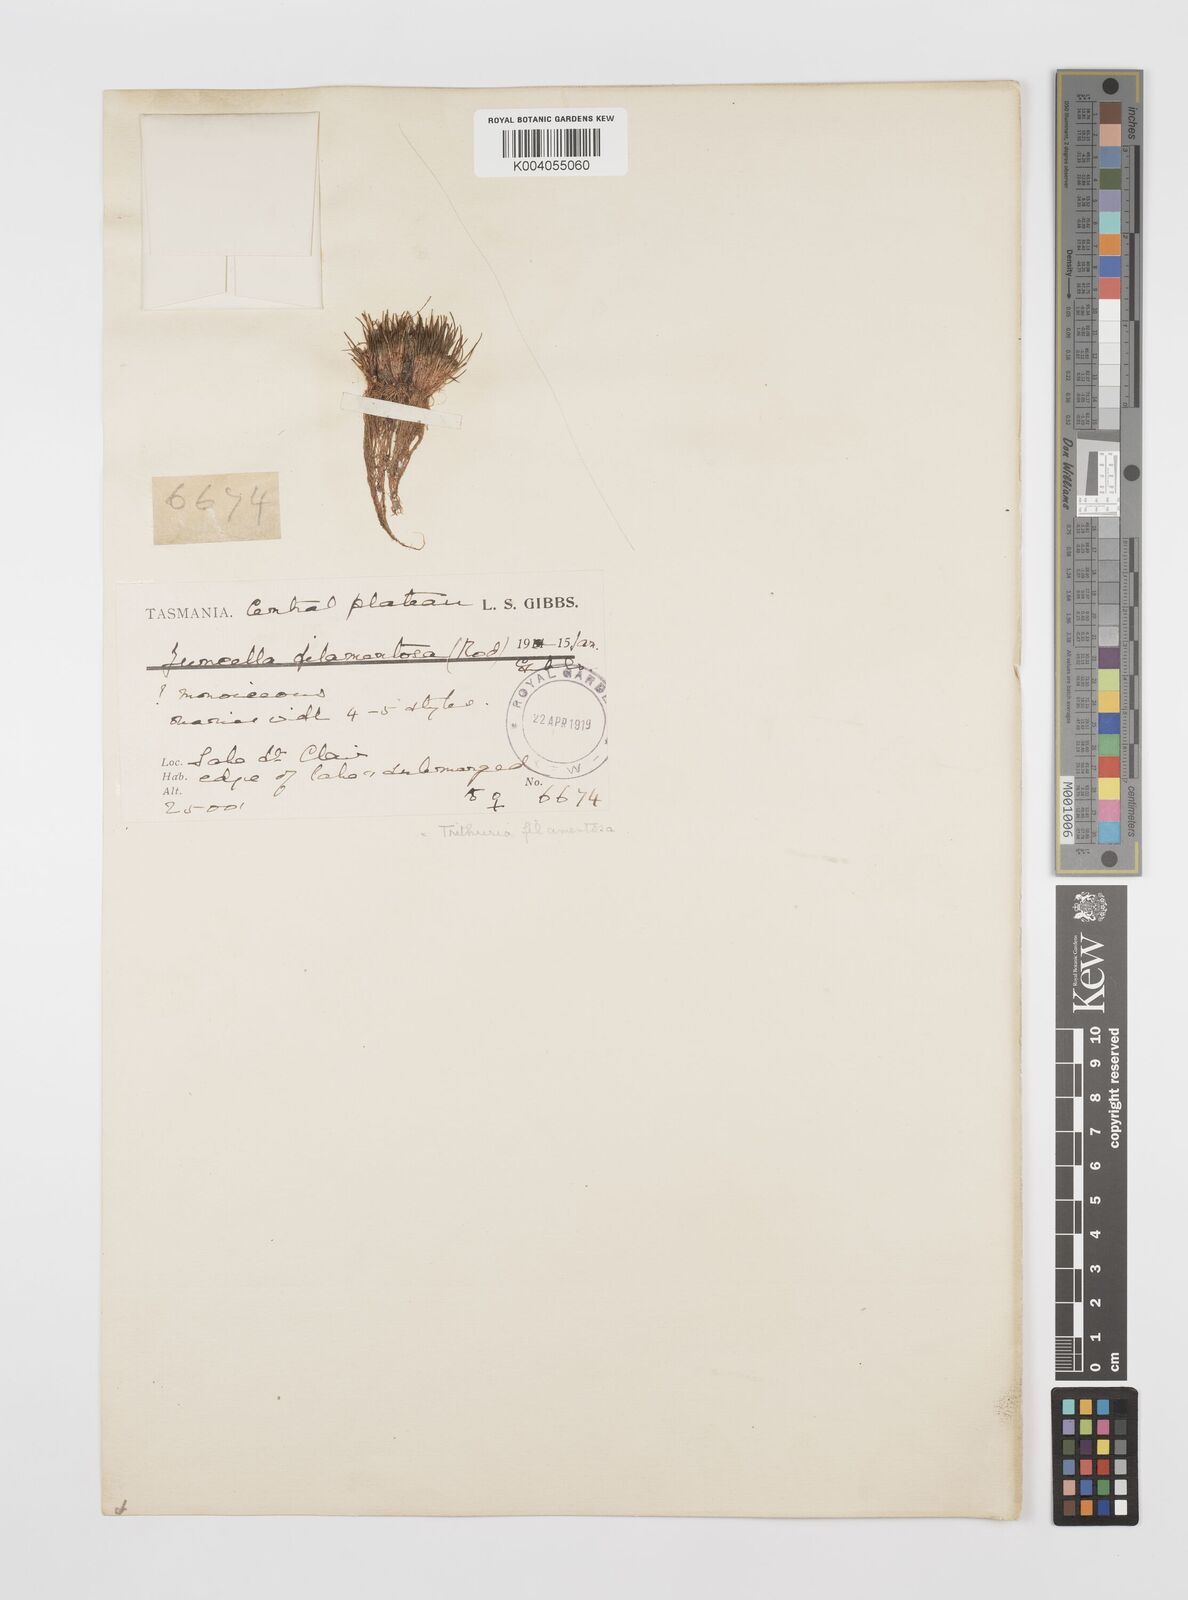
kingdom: Plantae
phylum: Tracheophyta
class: Magnoliopsida
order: Nymphaeales
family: Hydatellaceae
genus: Trithuria
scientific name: Trithuria filamentosa
